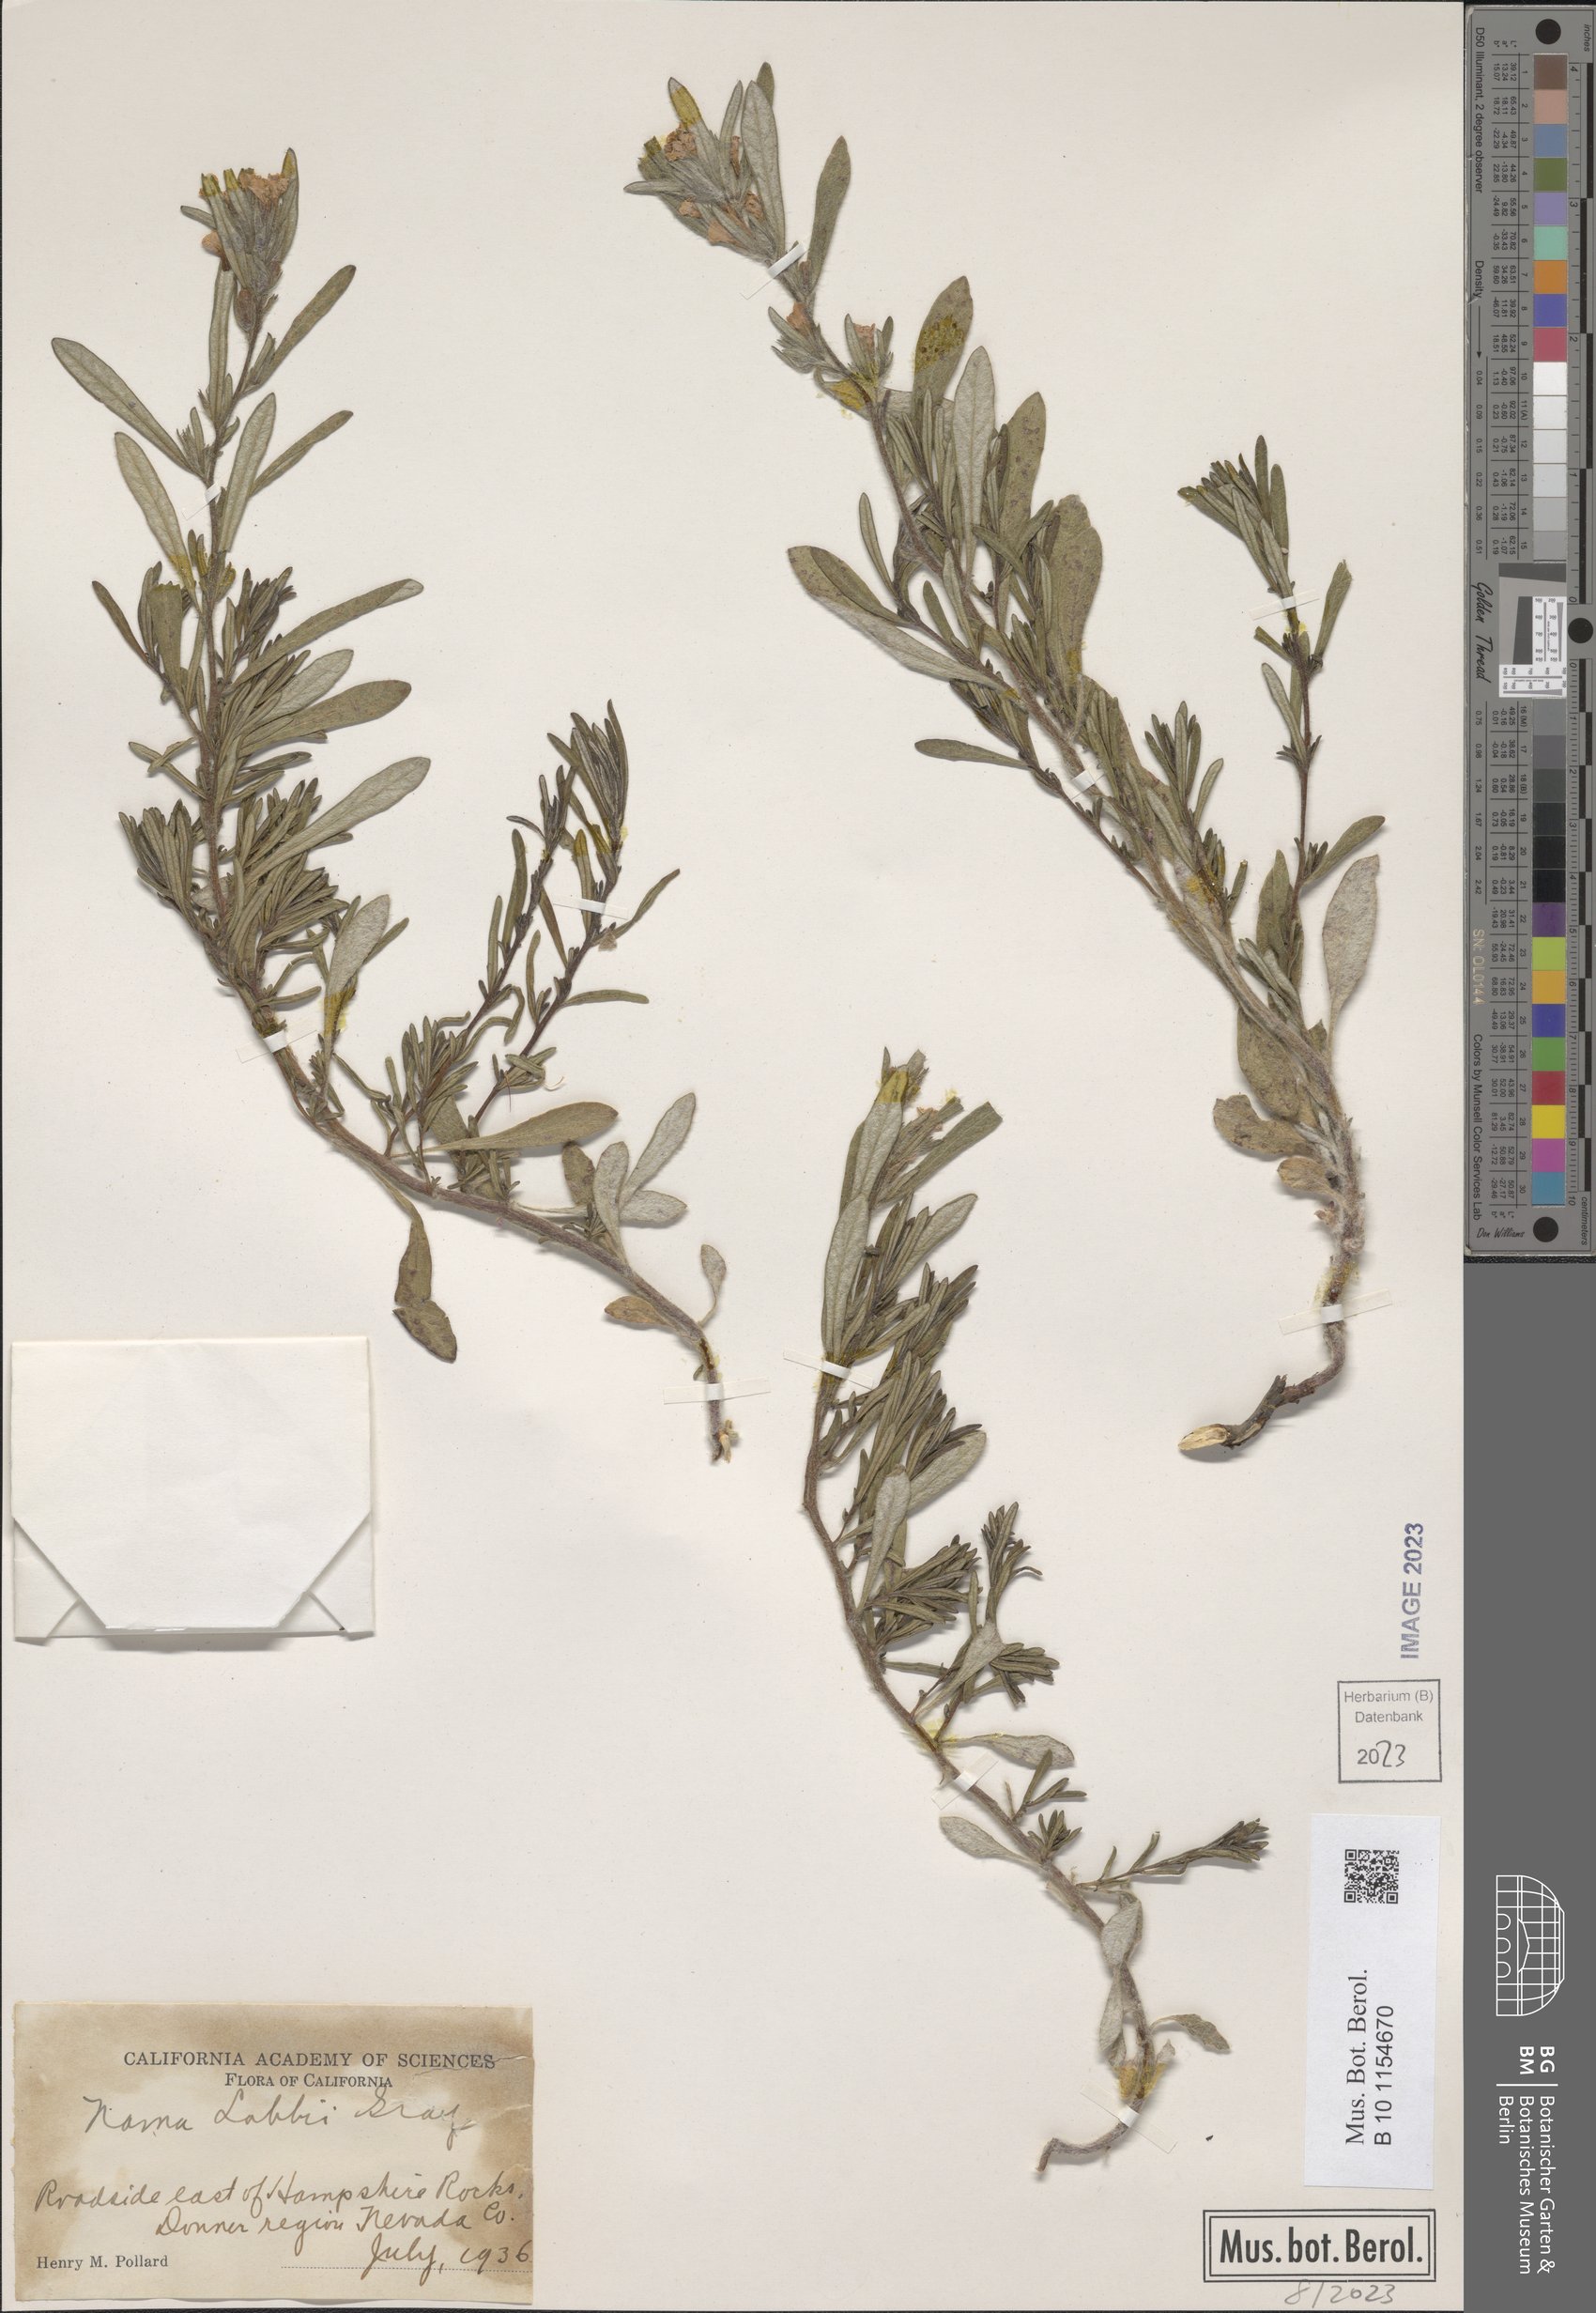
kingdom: Plantae
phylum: Tracheophyta
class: Magnoliopsida
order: Boraginales
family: Namaceae
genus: Nama
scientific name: Nama lobbii
